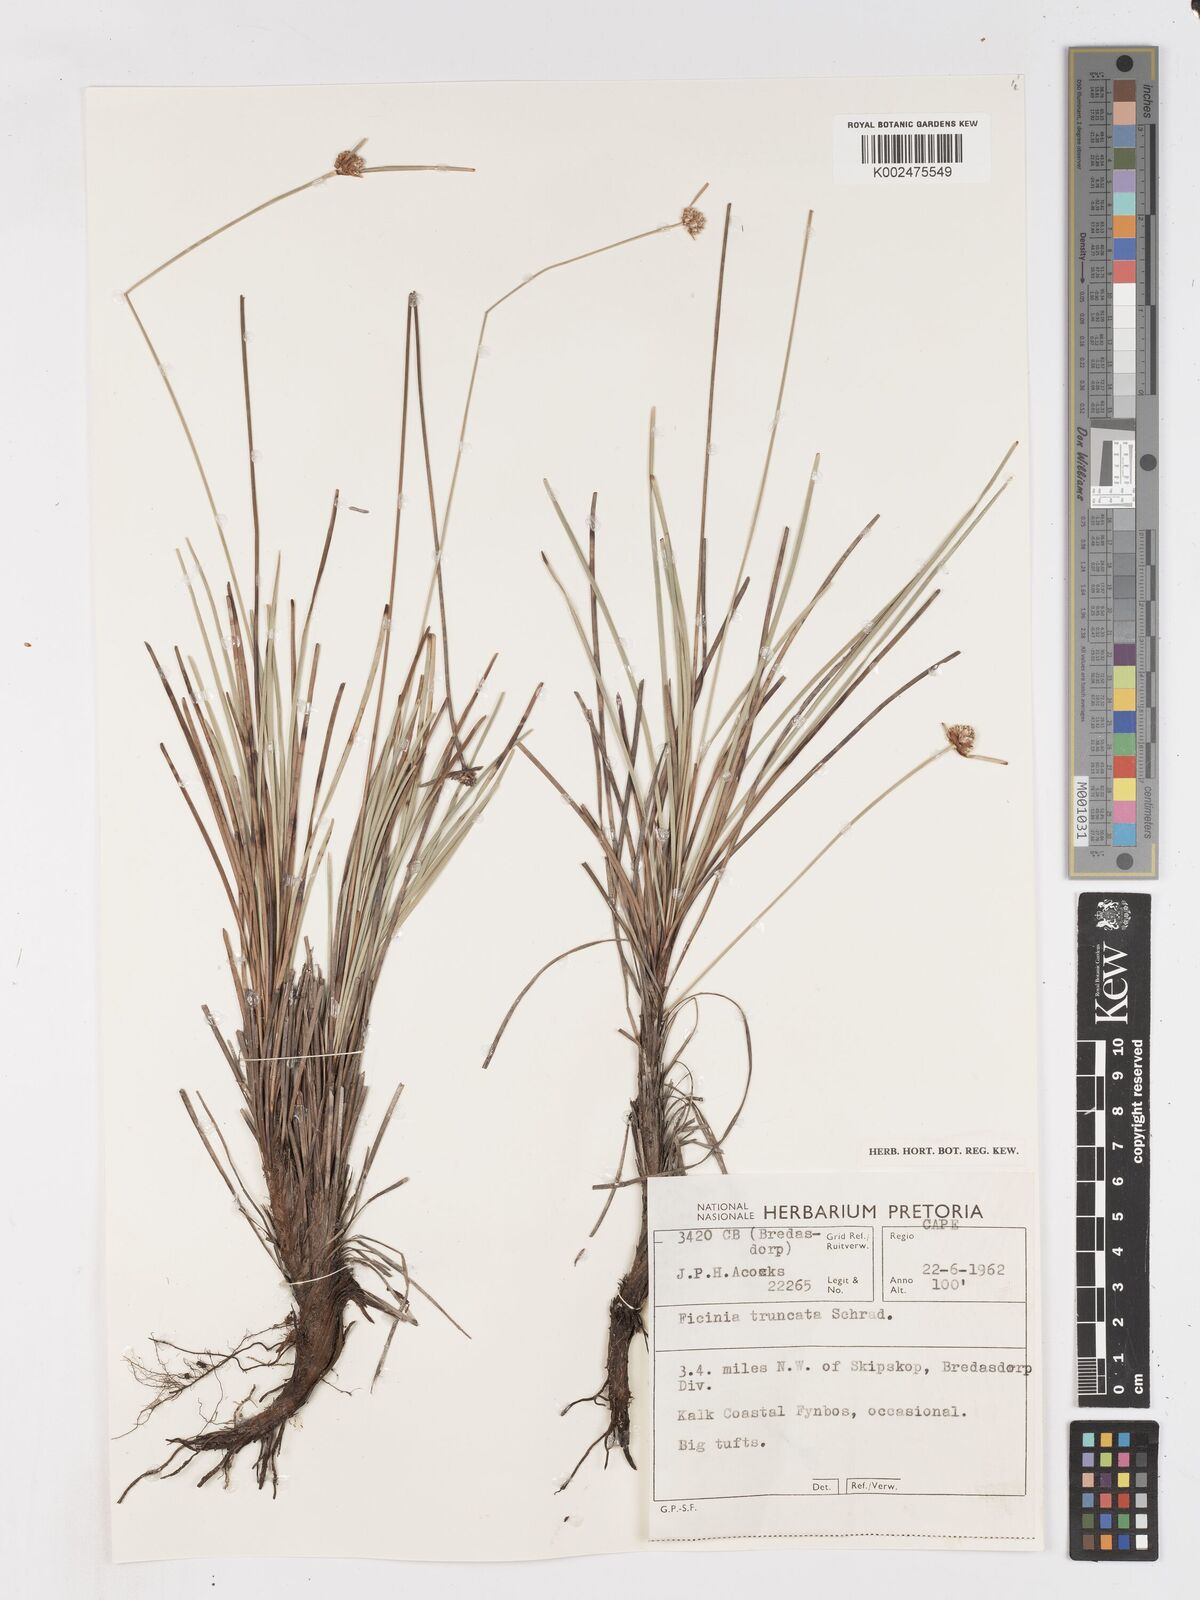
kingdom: Plantae
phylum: Tracheophyta
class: Liliopsida
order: Poales
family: Cyperaceae
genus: Ficinia
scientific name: Ficinia praemorsa
